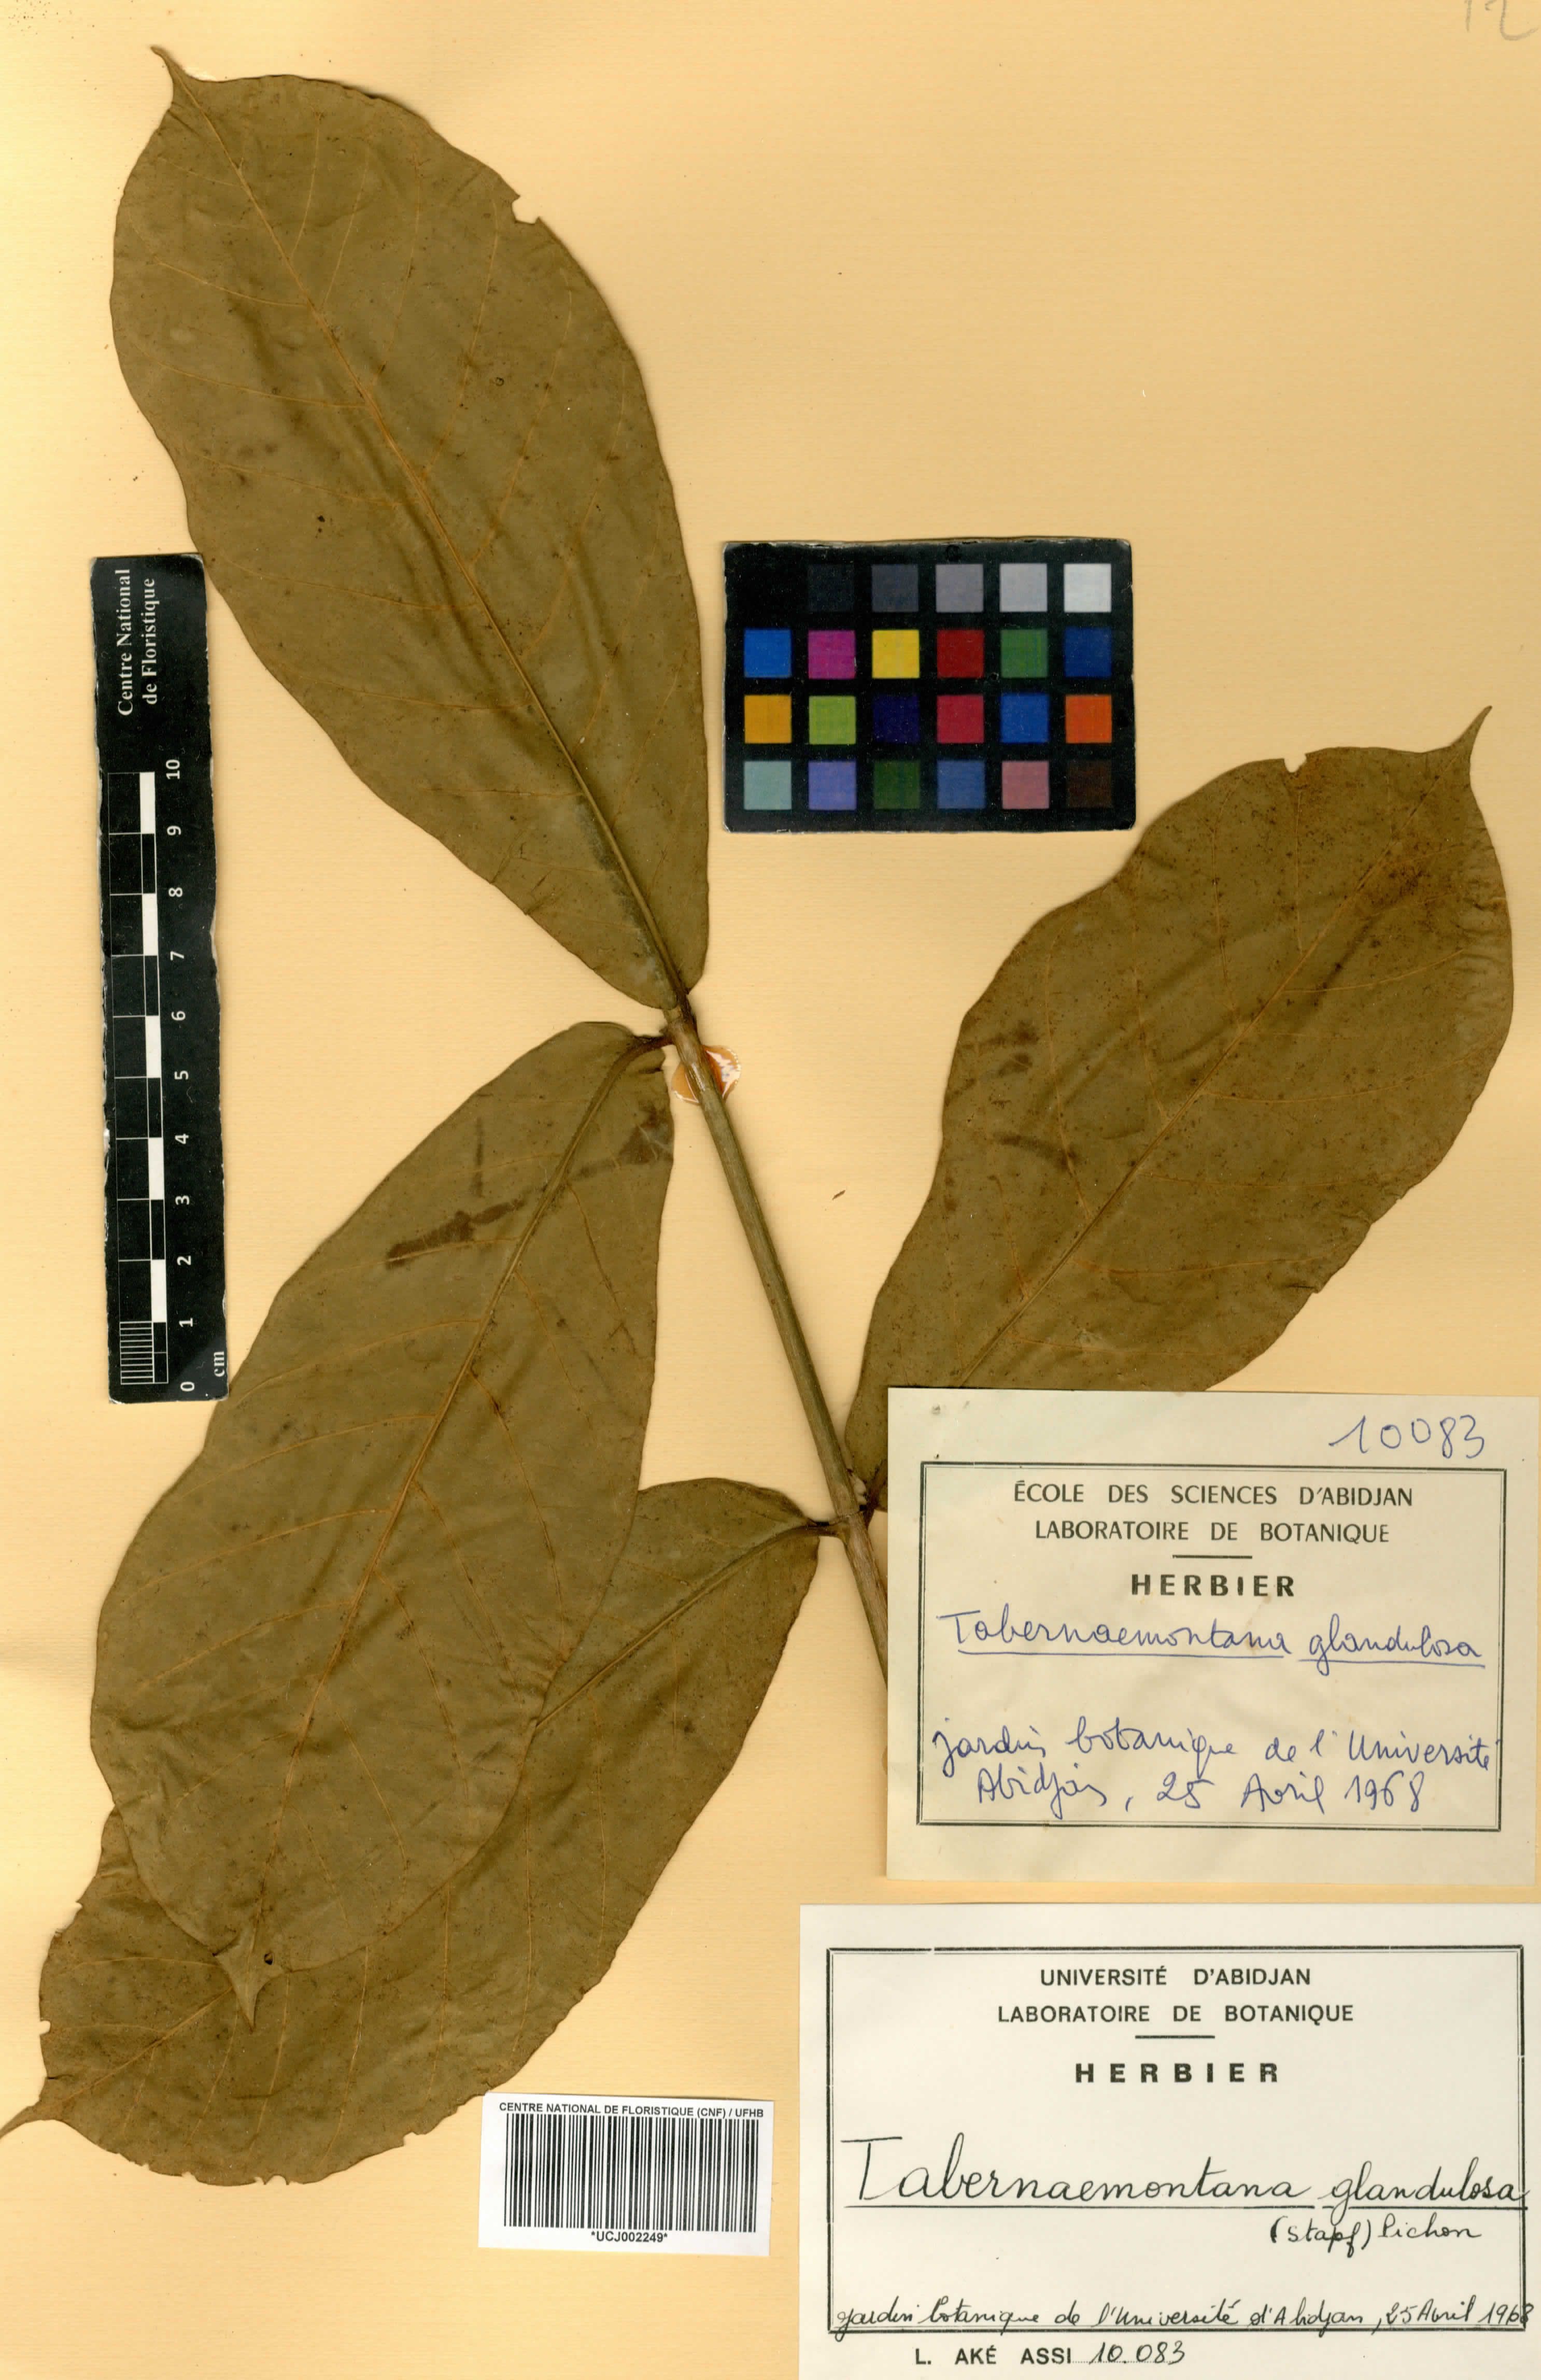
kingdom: Plantae
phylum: Tracheophyta
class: Magnoliopsida
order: Gentianales
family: Apocynaceae
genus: Tabernaemontana
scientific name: Tabernaemontana glandulosa
